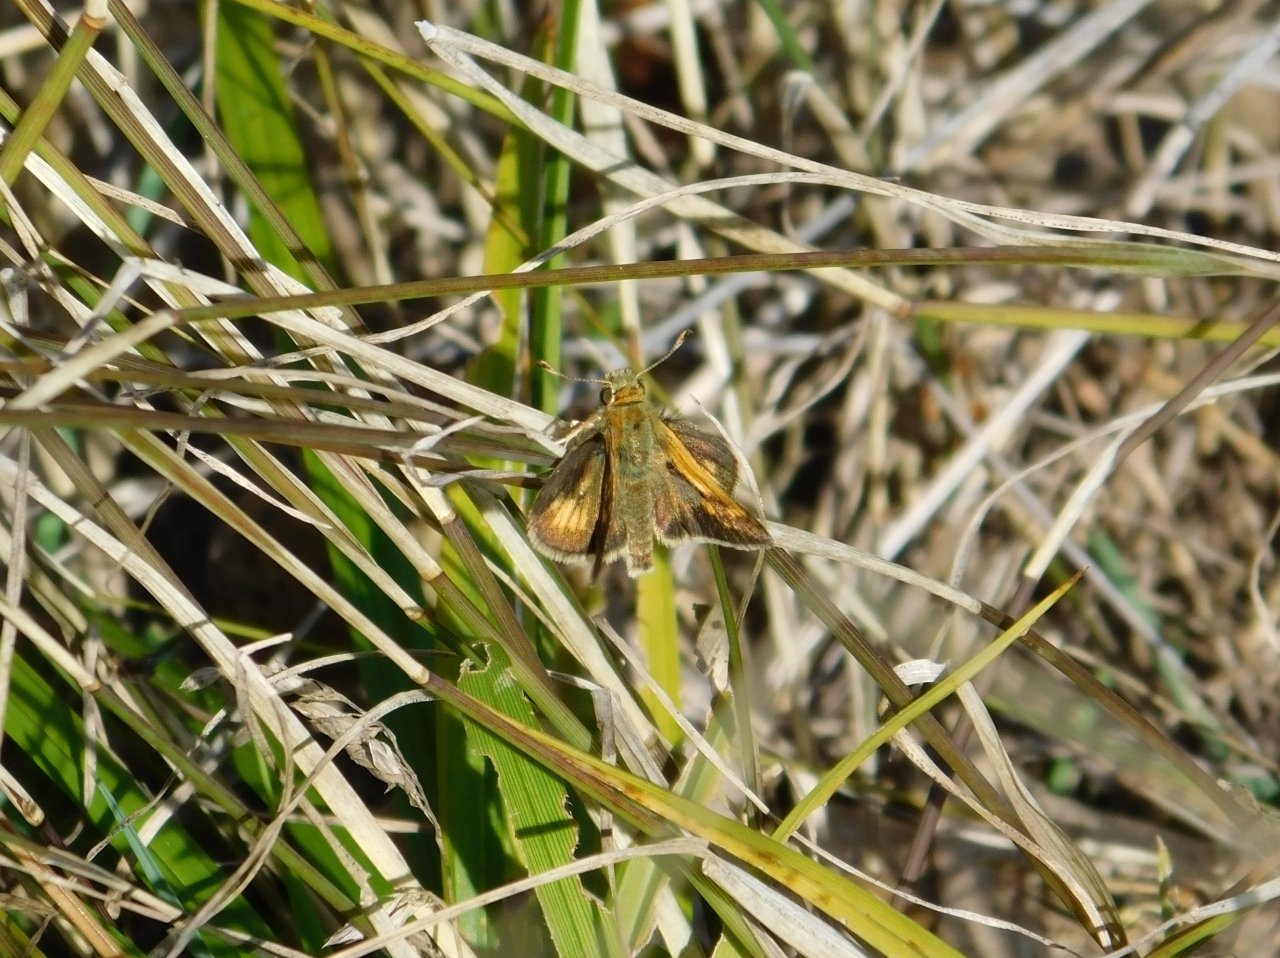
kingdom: Animalia
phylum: Arthropoda
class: Insecta
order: Lepidoptera
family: Hesperiidae
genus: Polites
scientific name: Polites coras
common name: Peck's Skipper
